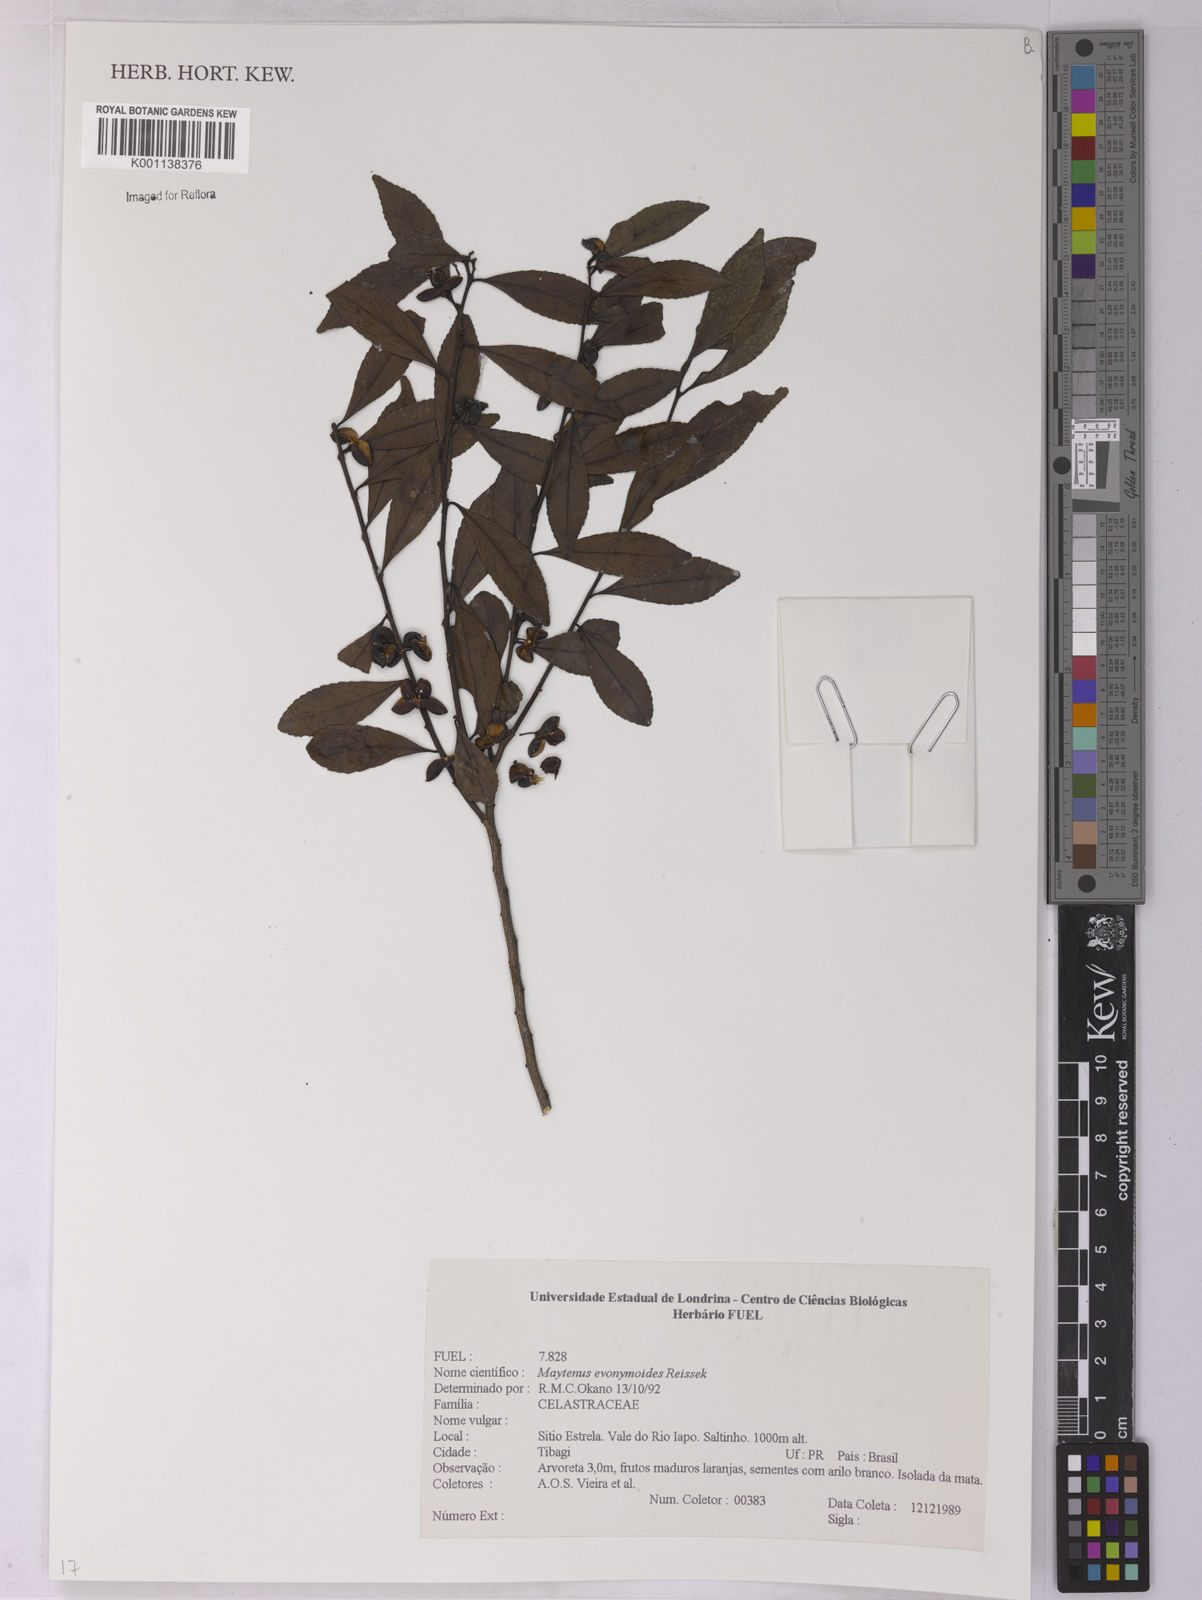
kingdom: Plantae
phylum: Tracheophyta
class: Magnoliopsida
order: Celastrales
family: Celastraceae
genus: Monteverdia
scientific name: Monteverdia evonymoides
